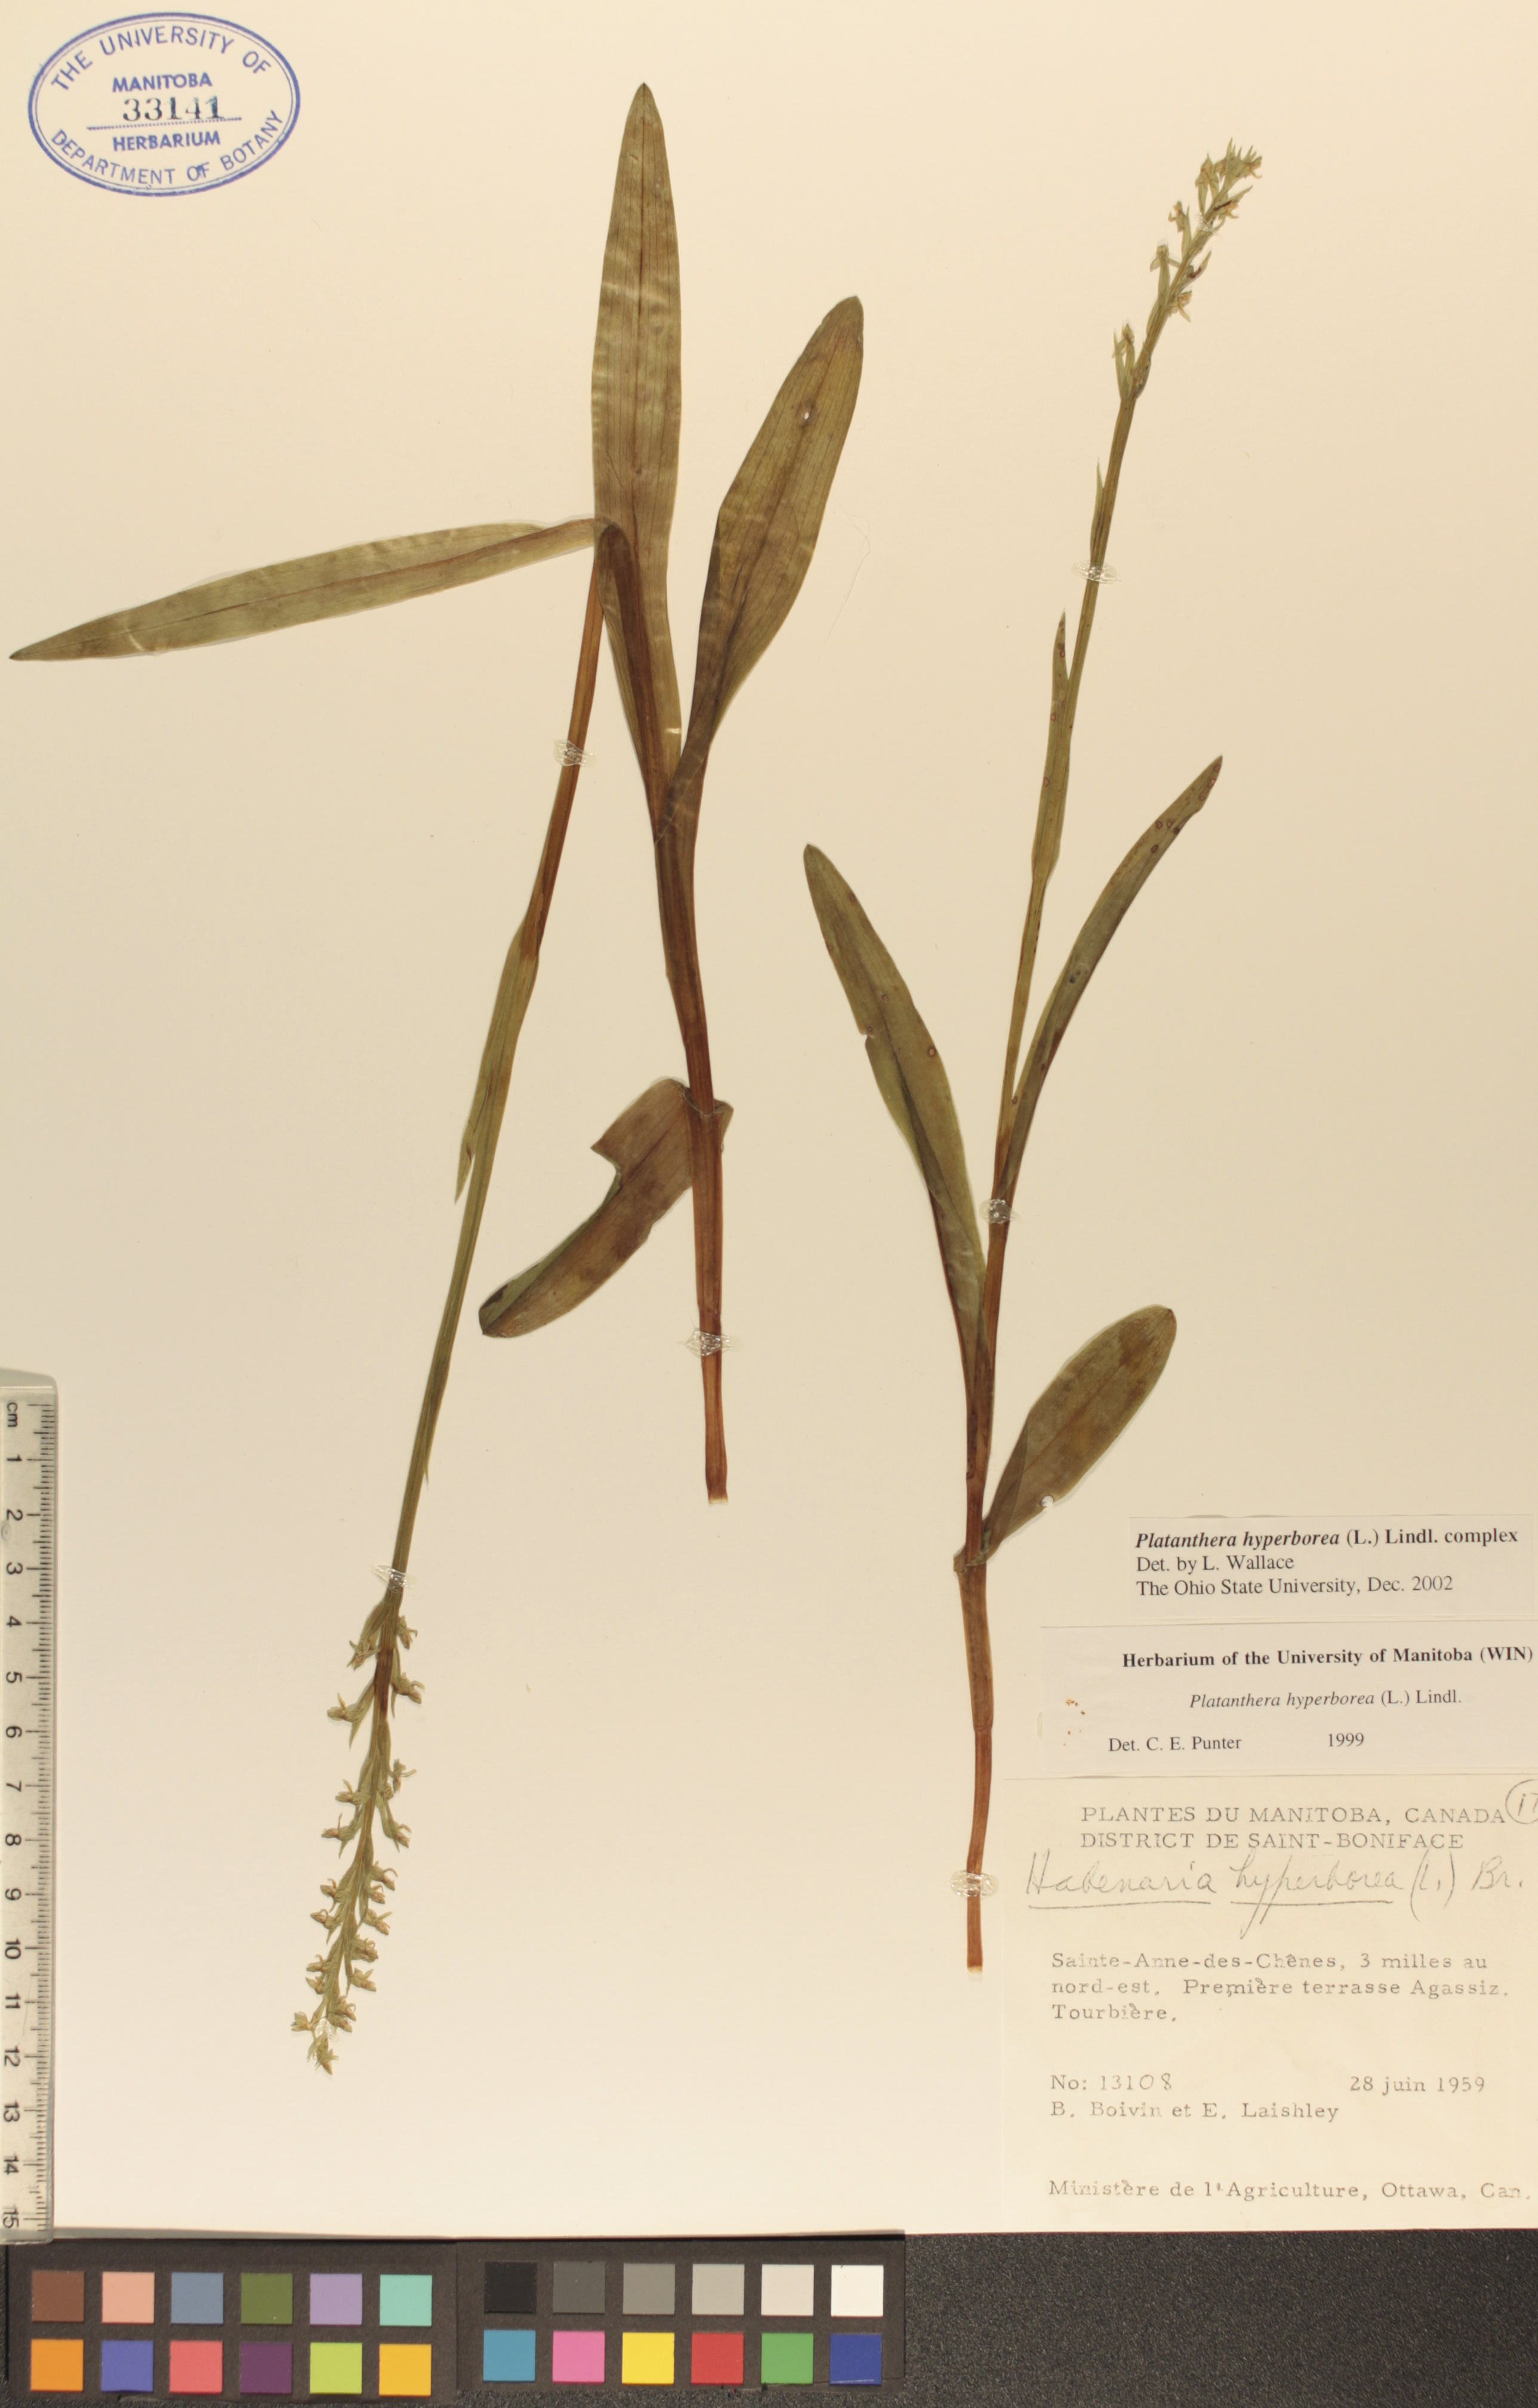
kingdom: Plantae
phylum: Tracheophyta
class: Liliopsida
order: Asparagales
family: Orchidaceae
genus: Platanthera
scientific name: Platanthera hyperborea
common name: Northern green orchid
